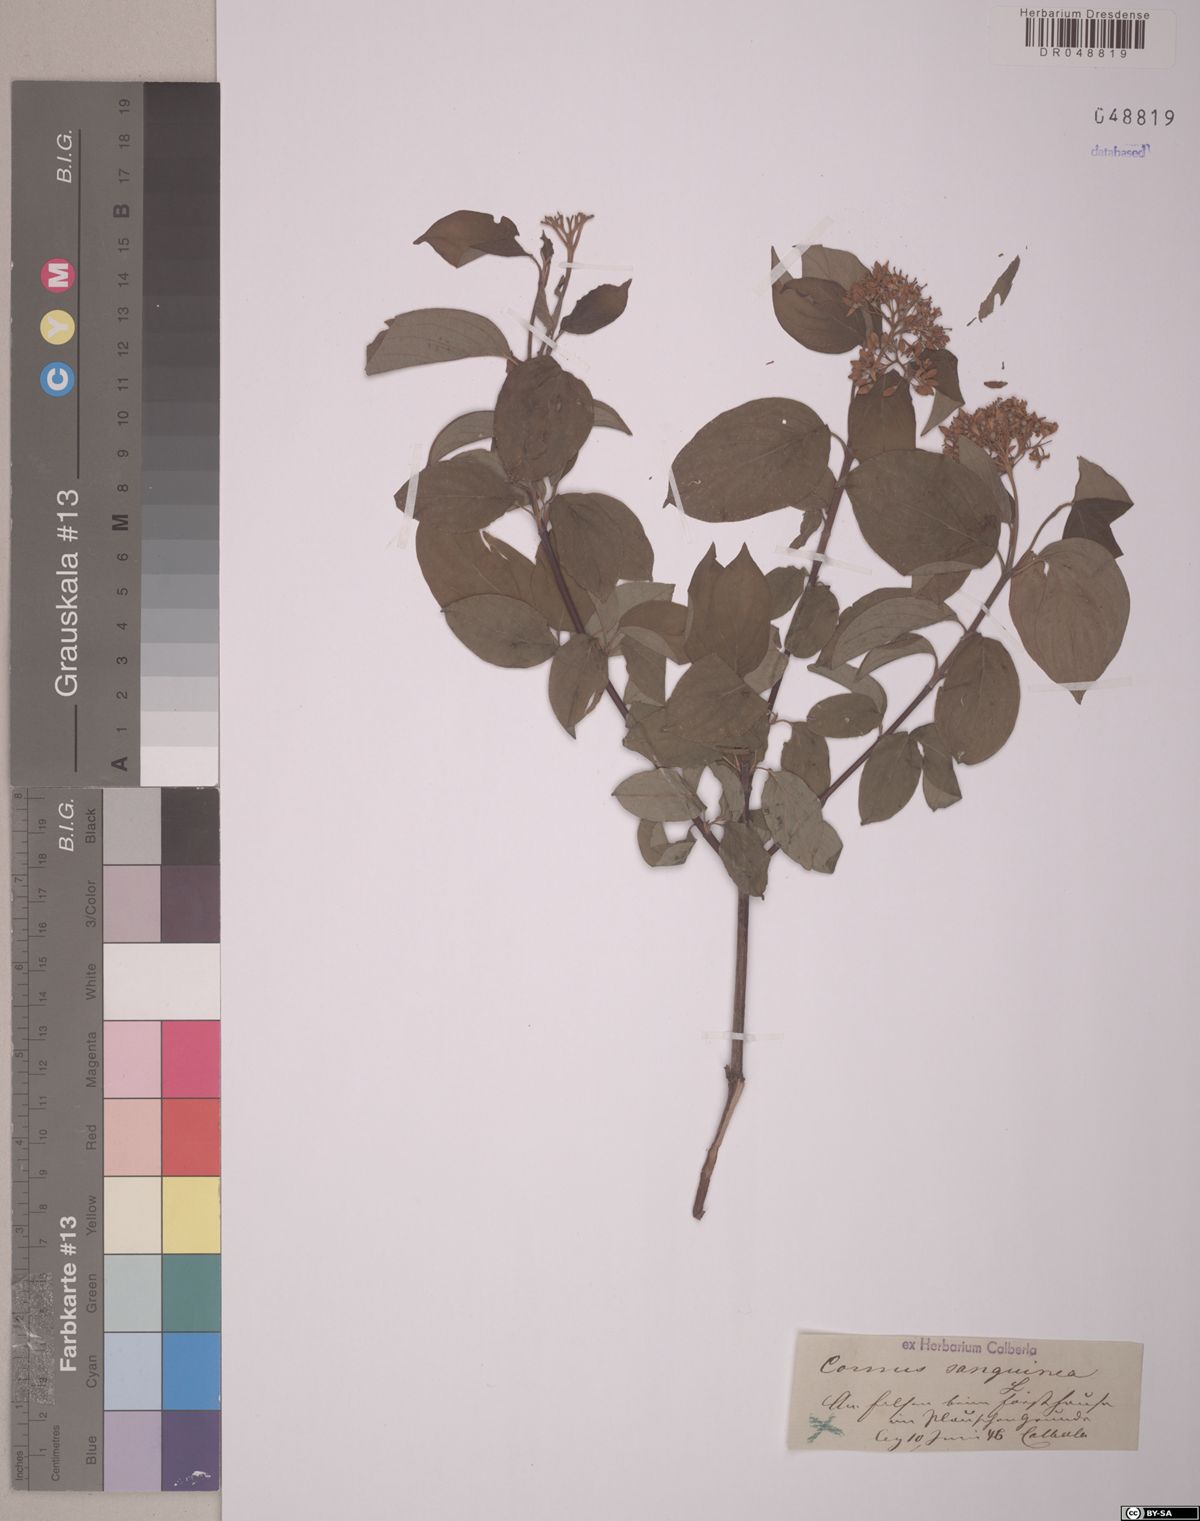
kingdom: Plantae
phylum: Tracheophyta
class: Magnoliopsida
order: Cornales
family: Cornaceae
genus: Cornus
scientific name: Cornus sanguinea
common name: Dogwood
